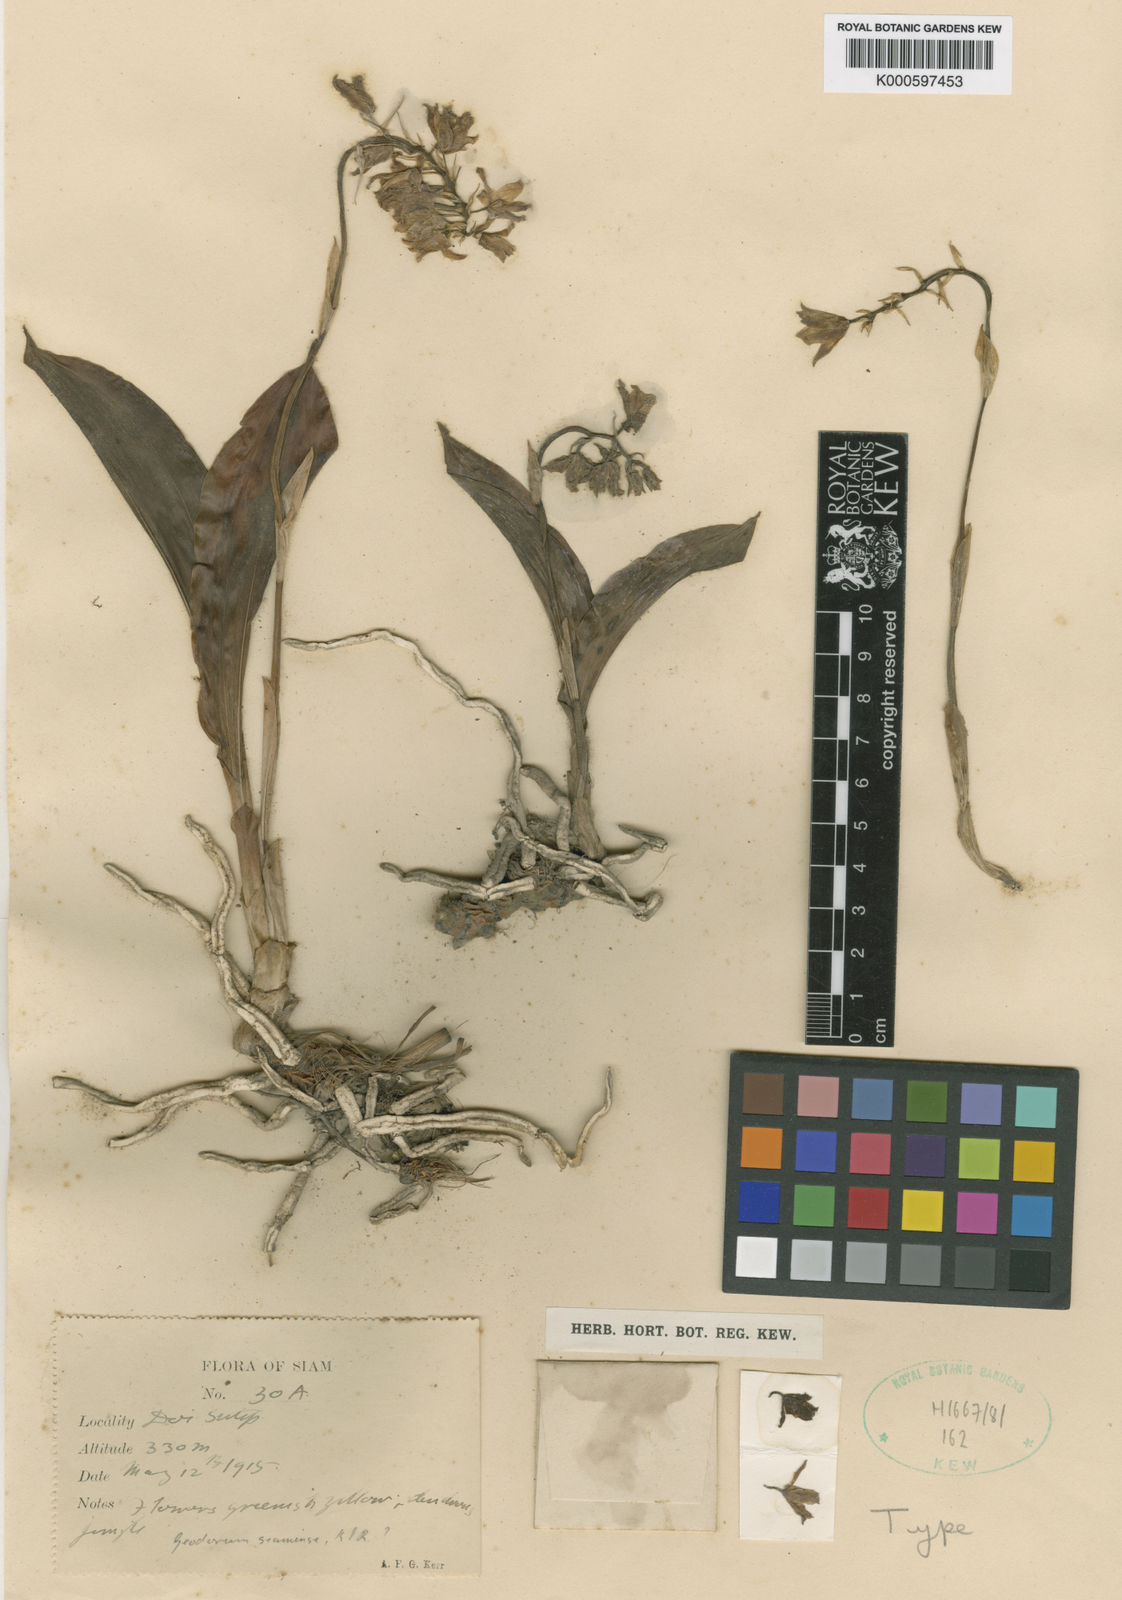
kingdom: Plantae
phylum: Tracheophyta
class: Liliopsida
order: Asparagales
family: Orchidaceae
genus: Eulophia
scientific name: Eulophia exigua
